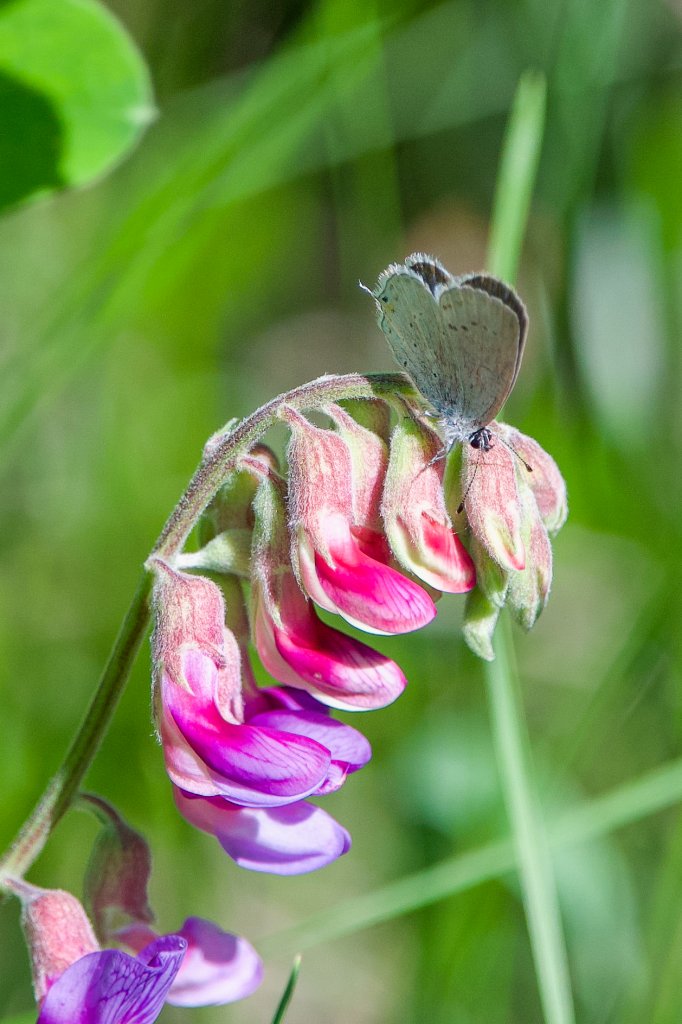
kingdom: Animalia
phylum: Arthropoda
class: Insecta
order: Lepidoptera
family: Lycaenidae
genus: Elkalyce
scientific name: Elkalyce amyntula
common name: Western Tailed-Blue
